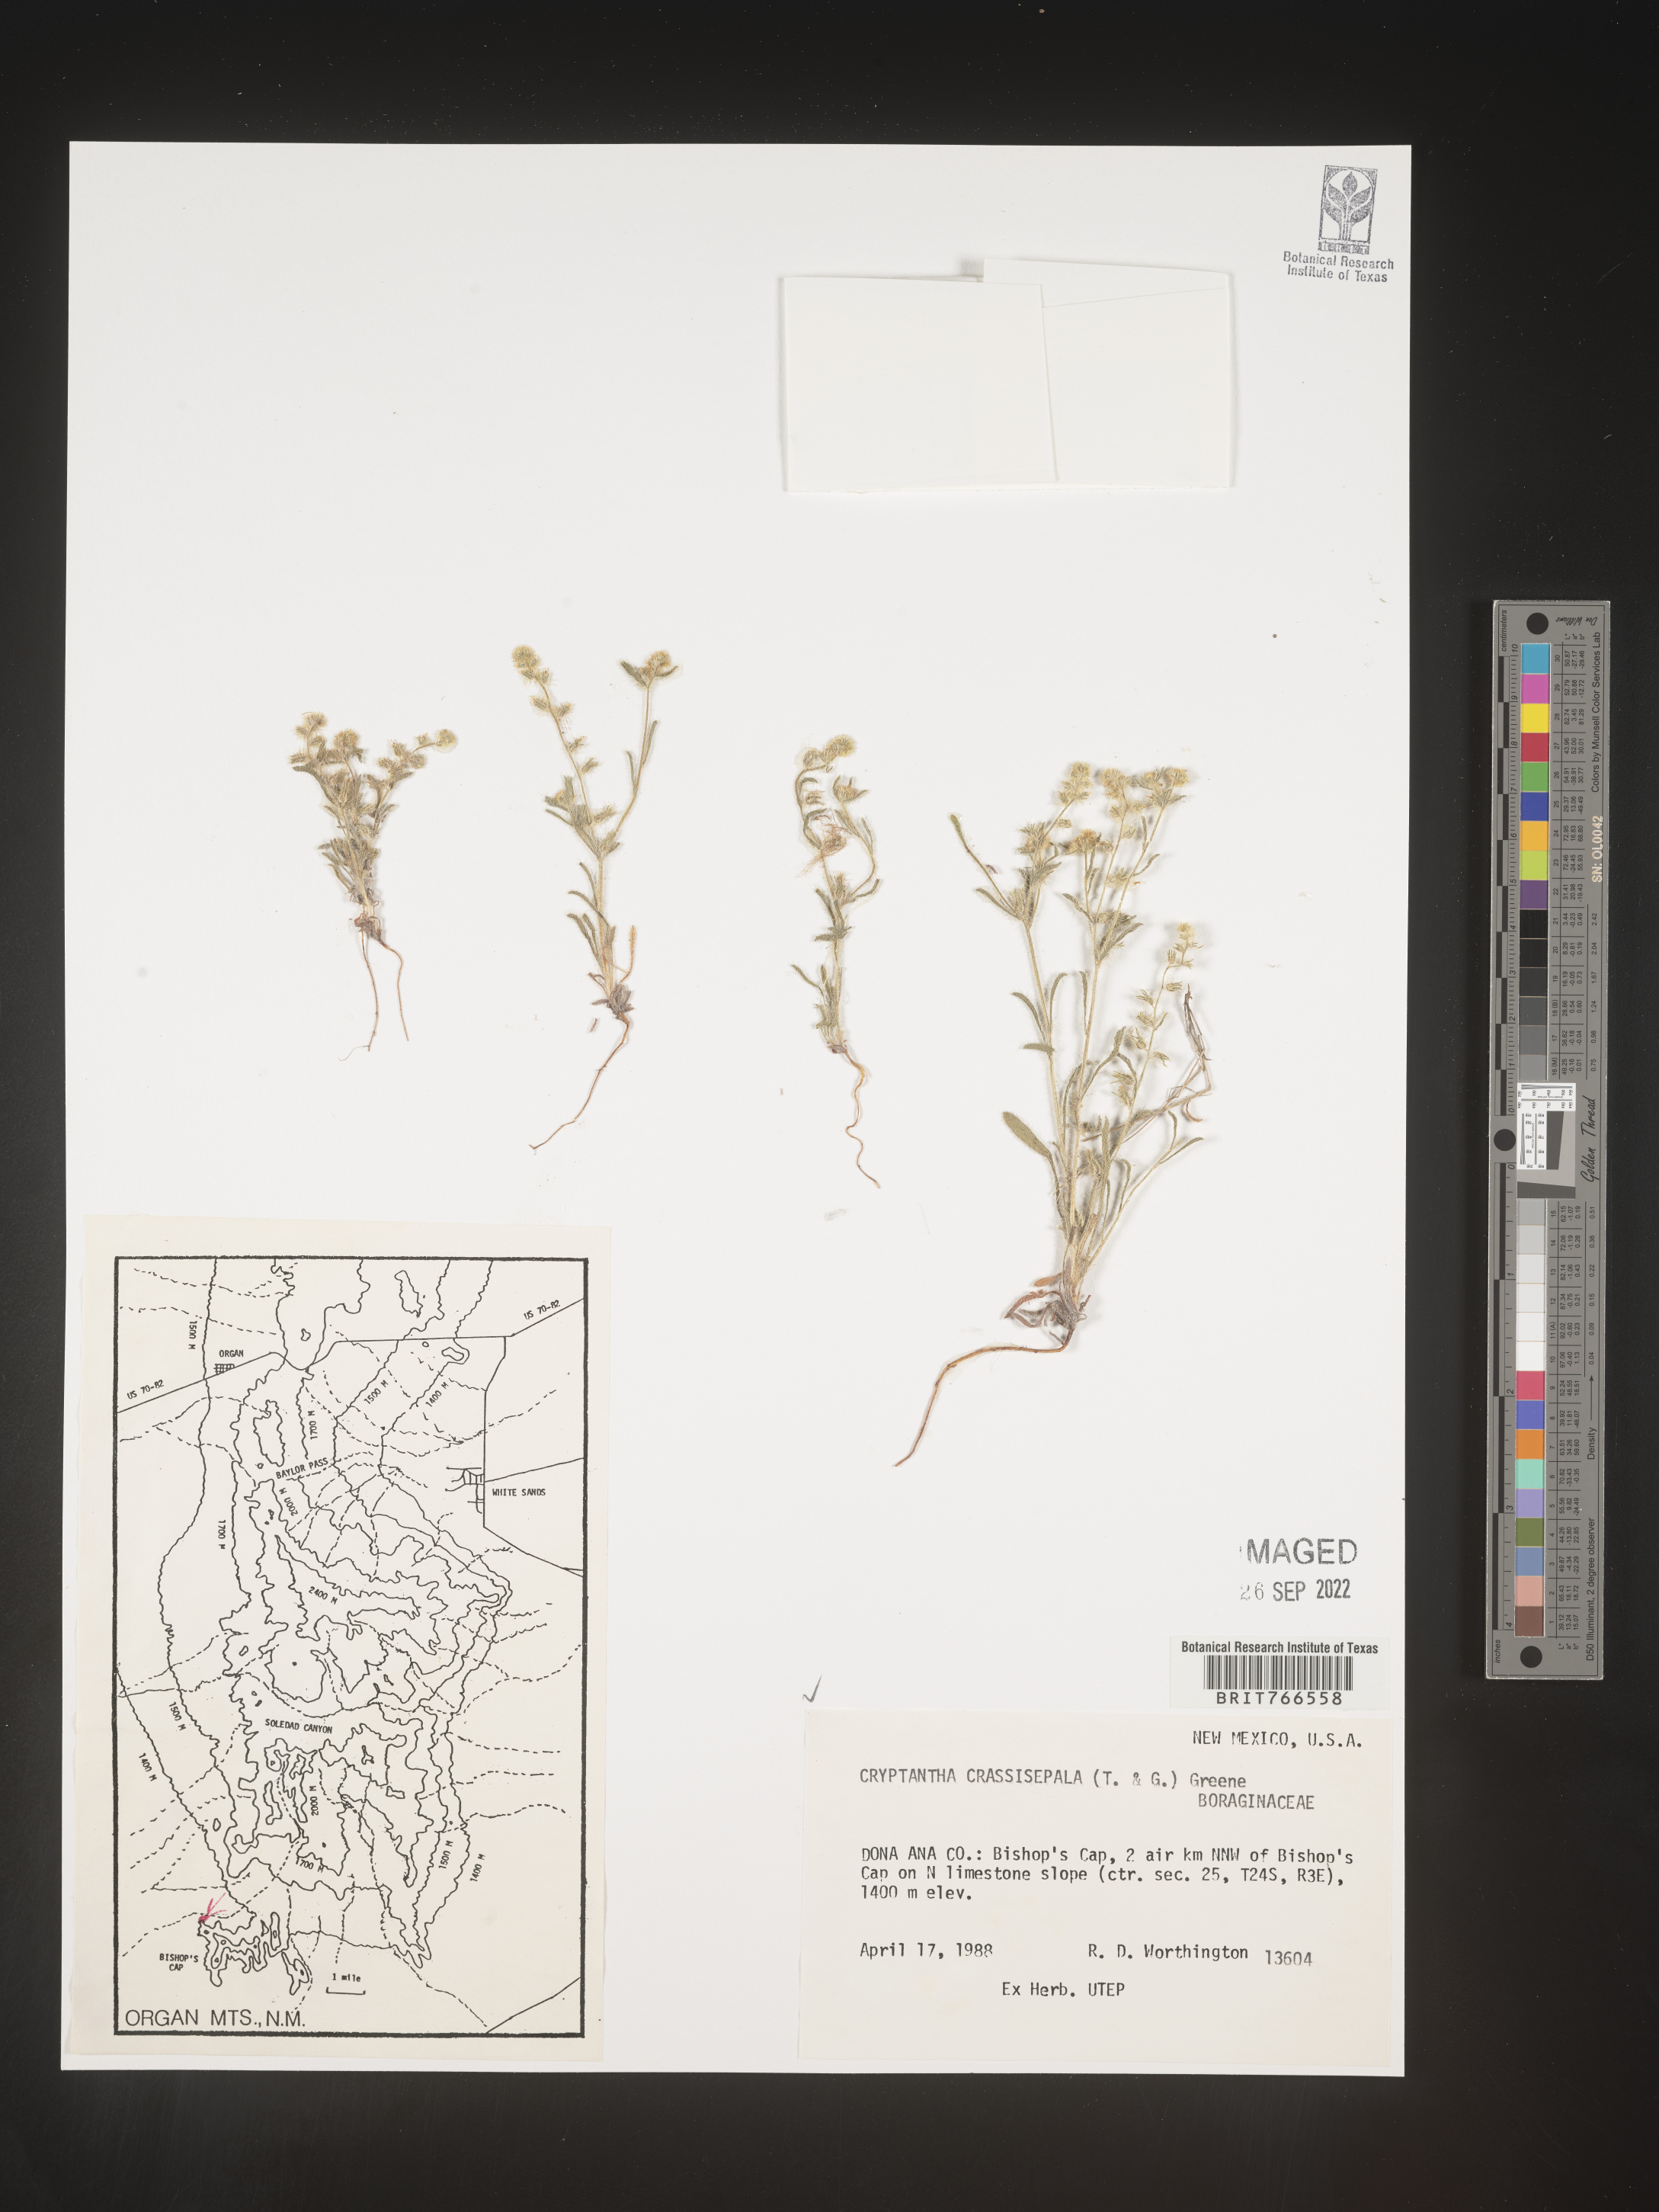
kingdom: Plantae
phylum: Tracheophyta
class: Magnoliopsida
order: Boraginales
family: Boraginaceae
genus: Cryptantha
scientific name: Cryptantha
